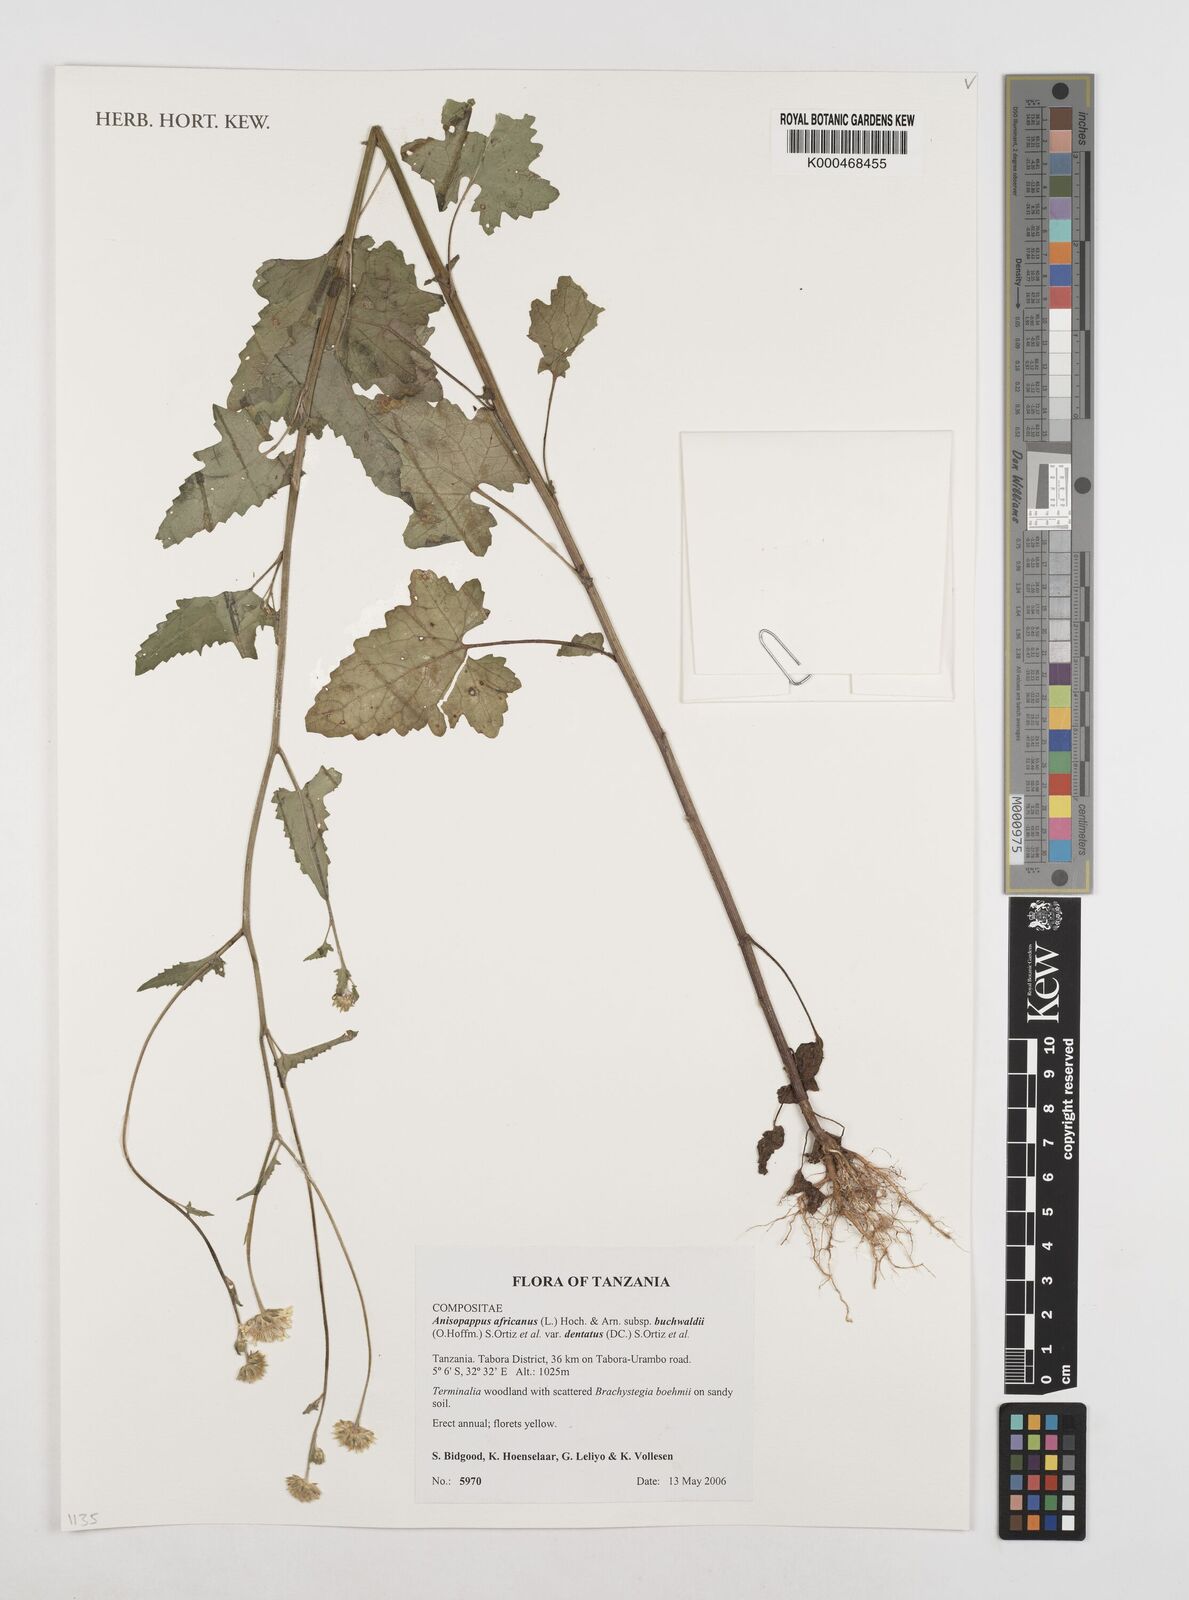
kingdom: Plantae
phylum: Tracheophyta
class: Magnoliopsida
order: Asterales
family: Asteraceae
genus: Anisopappus
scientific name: Anisopappus
